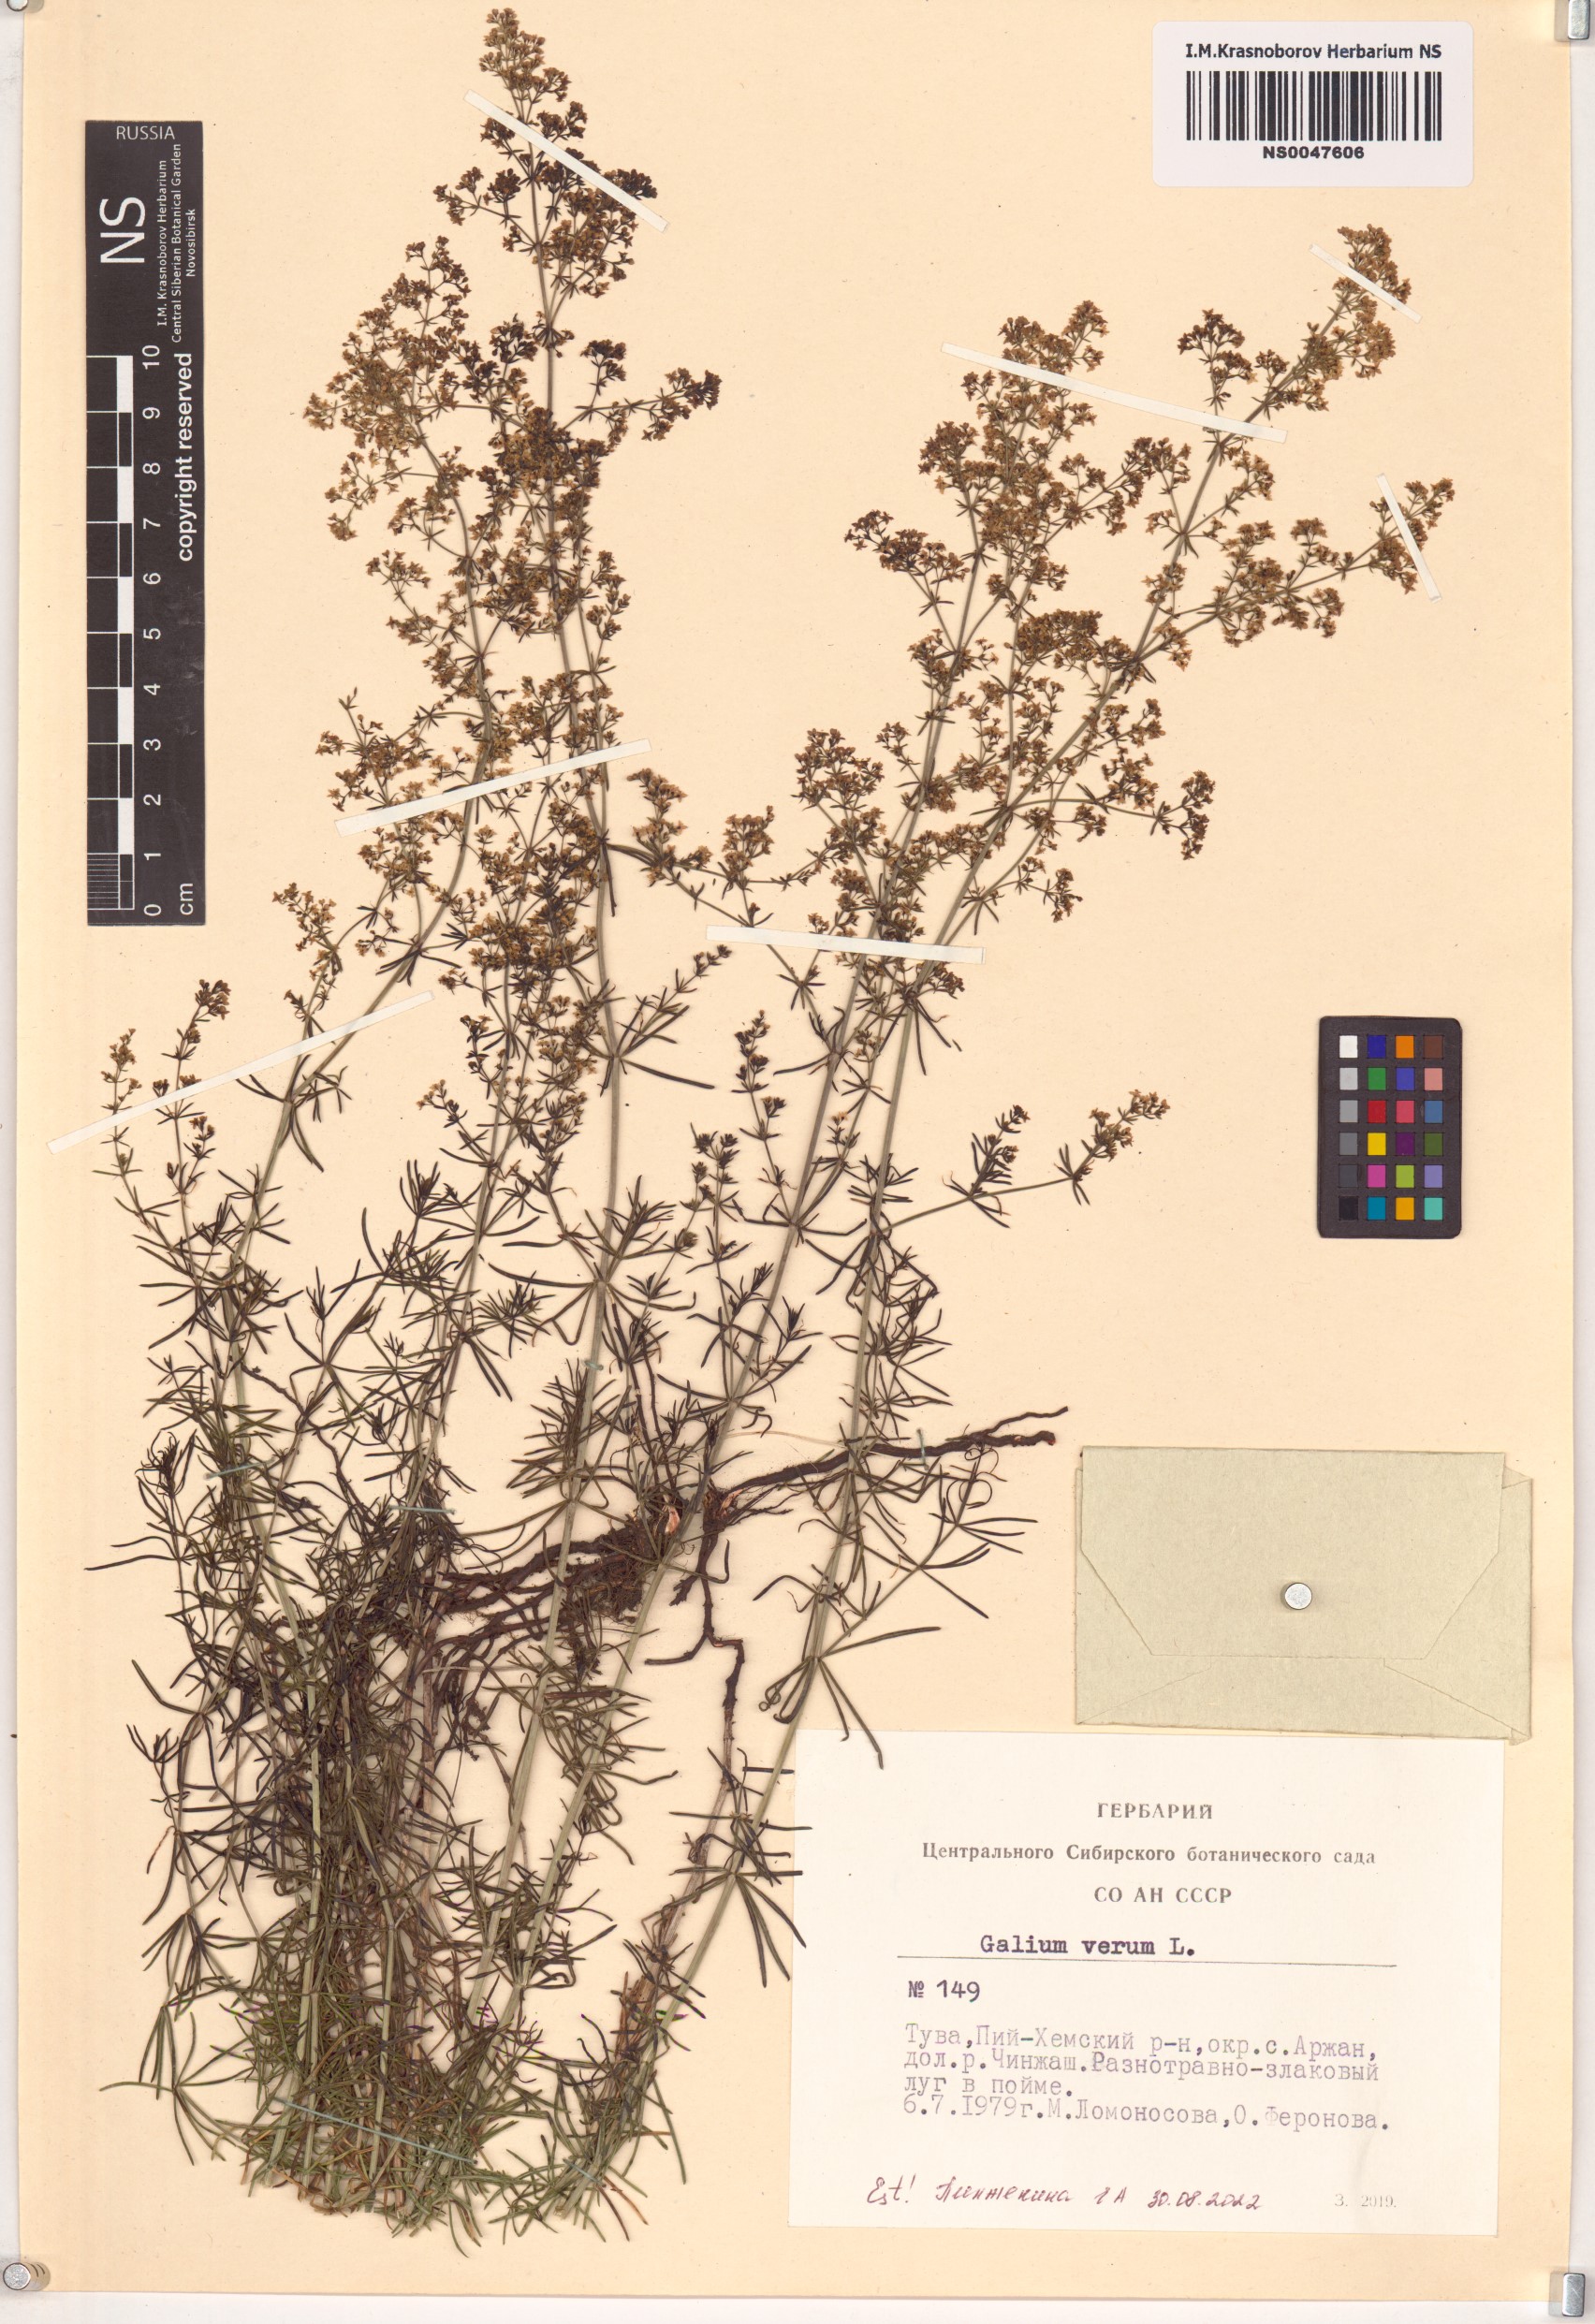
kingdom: Plantae
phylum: Tracheophyta
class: Magnoliopsida
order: Gentianales
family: Rubiaceae
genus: Galium
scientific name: Galium verum
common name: Lady's bedstraw
